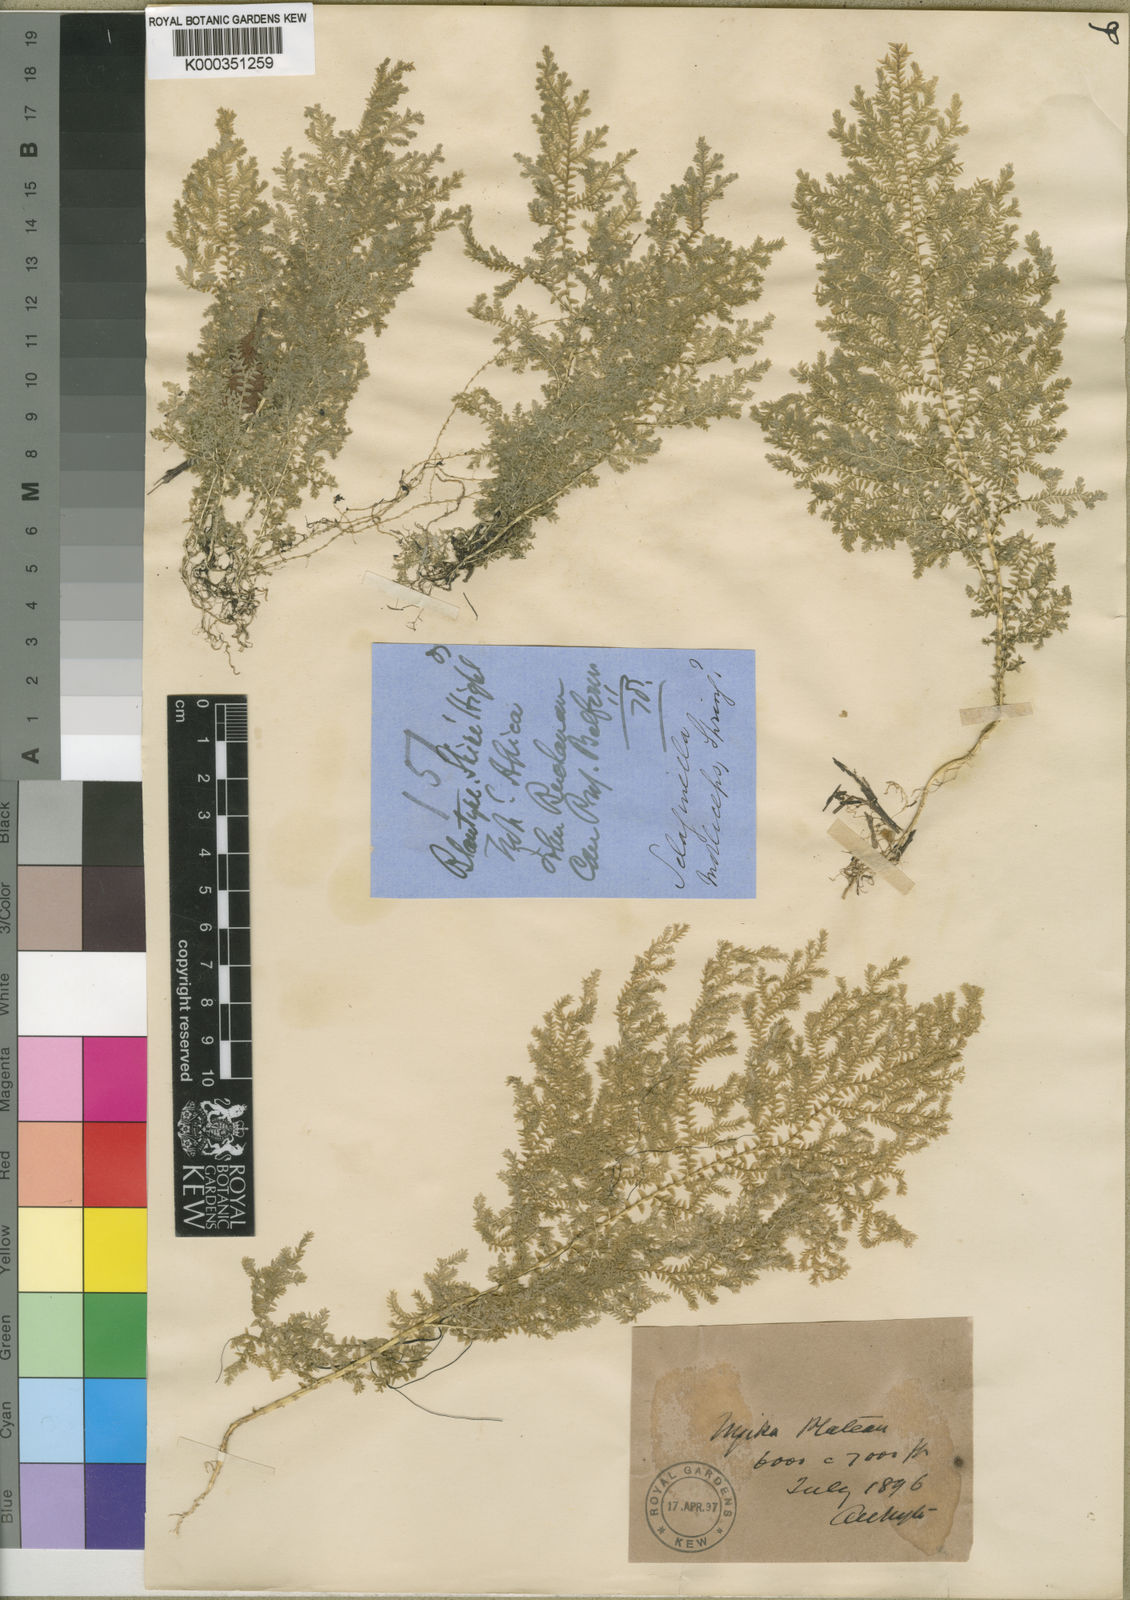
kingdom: Plantae
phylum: Tracheophyta
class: Lycopodiopsida
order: Selaginellales
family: Selaginellaceae
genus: Selaginella
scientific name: Selaginella
